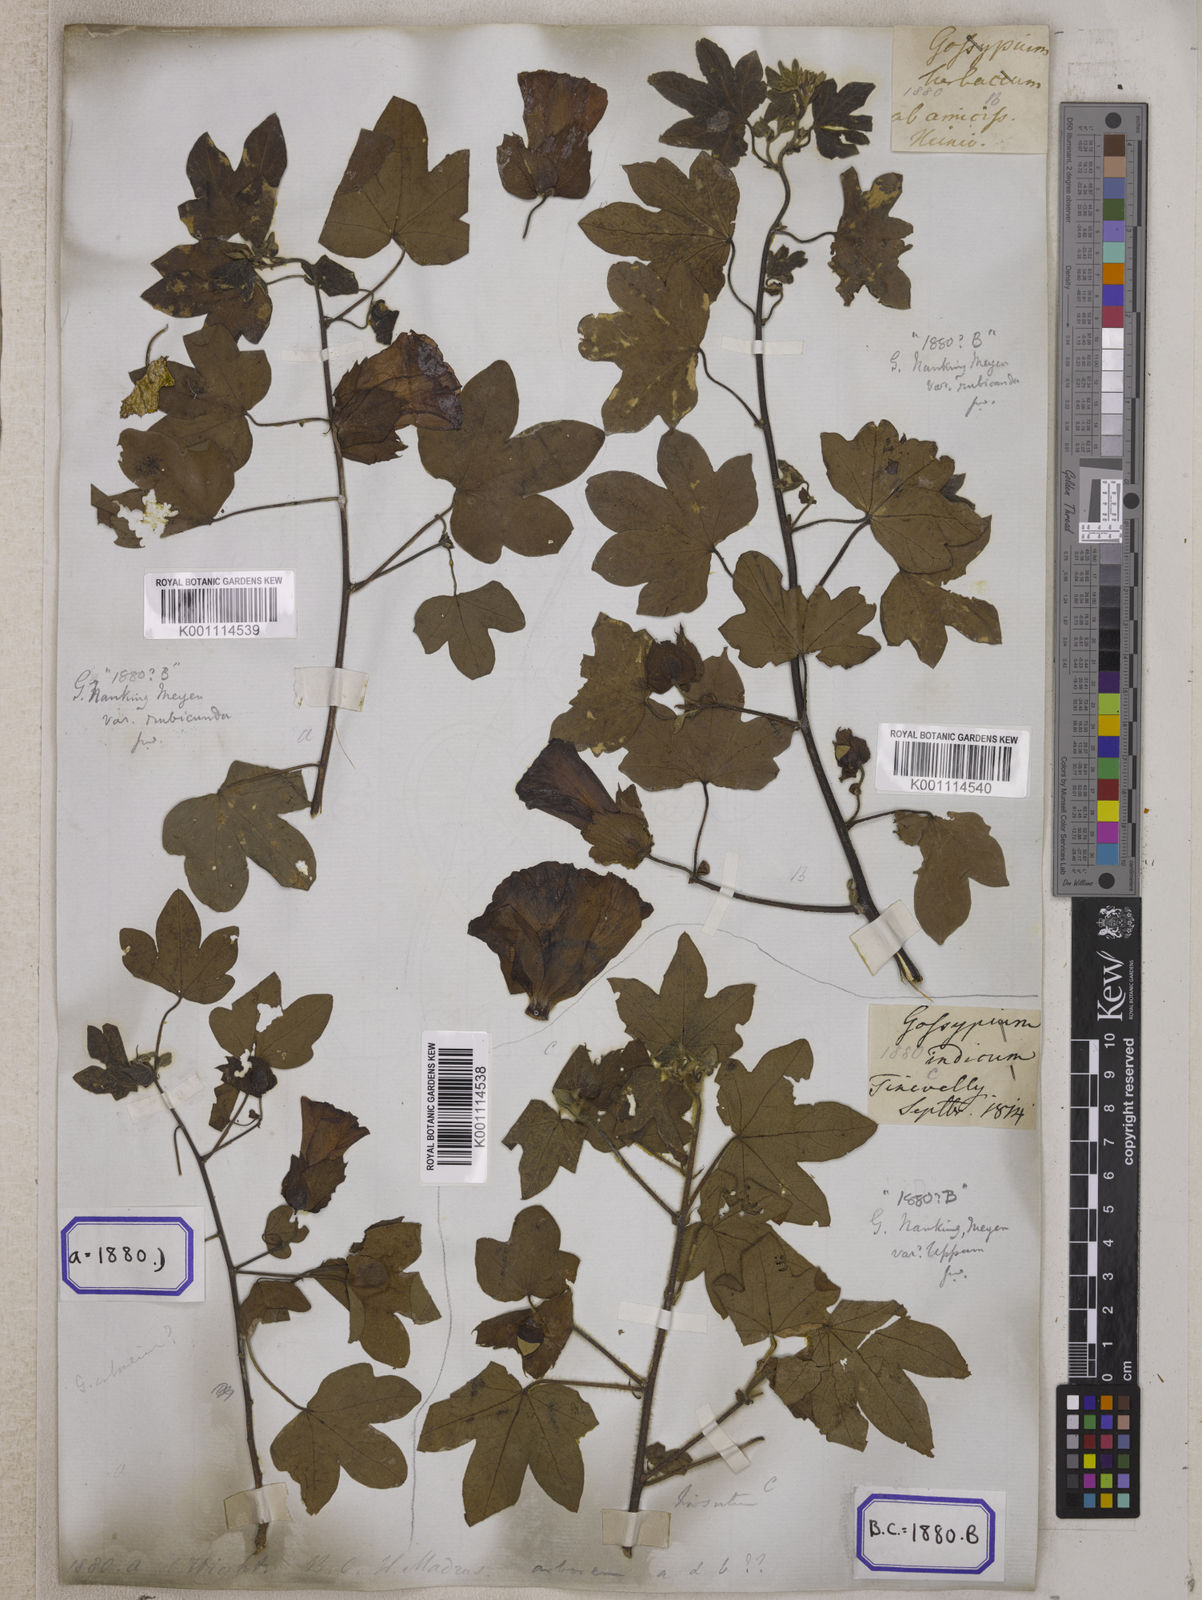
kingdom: Plantae
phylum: Tracheophyta
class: Magnoliopsida
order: Malvales
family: Malvaceae
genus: Gossypium
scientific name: Gossypium herbaceum
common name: Levant cotton
